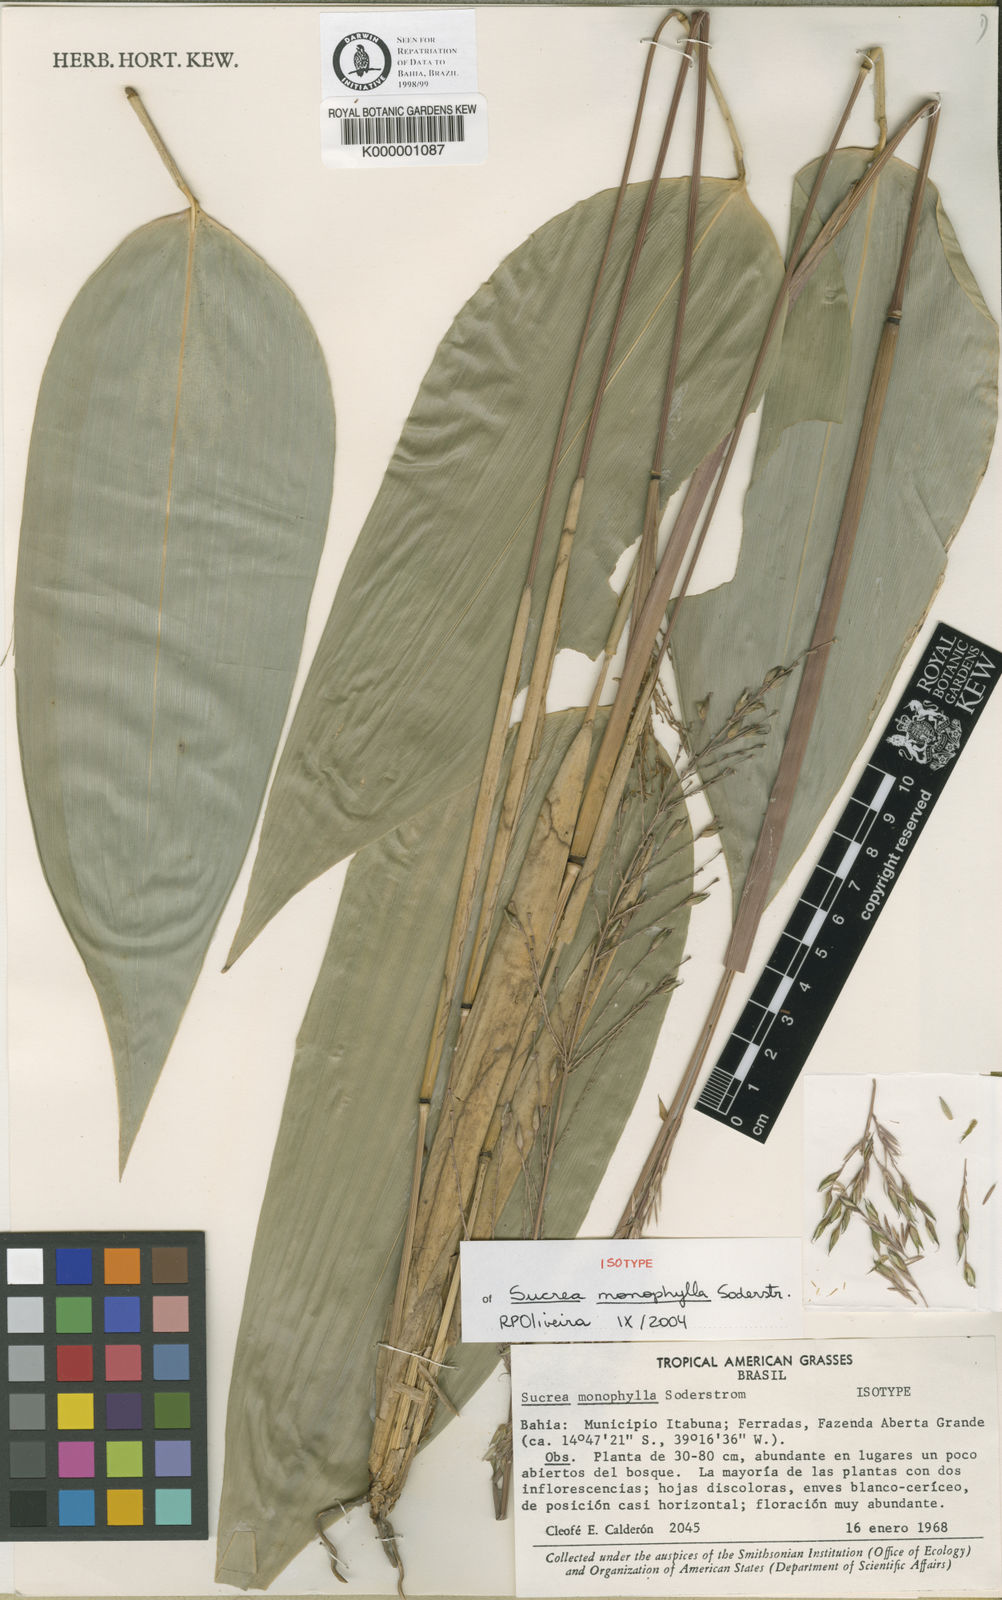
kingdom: Plantae
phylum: Tracheophyta
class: Liliopsida
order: Poales
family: Poaceae
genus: Raddia
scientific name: Raddia monophylla
